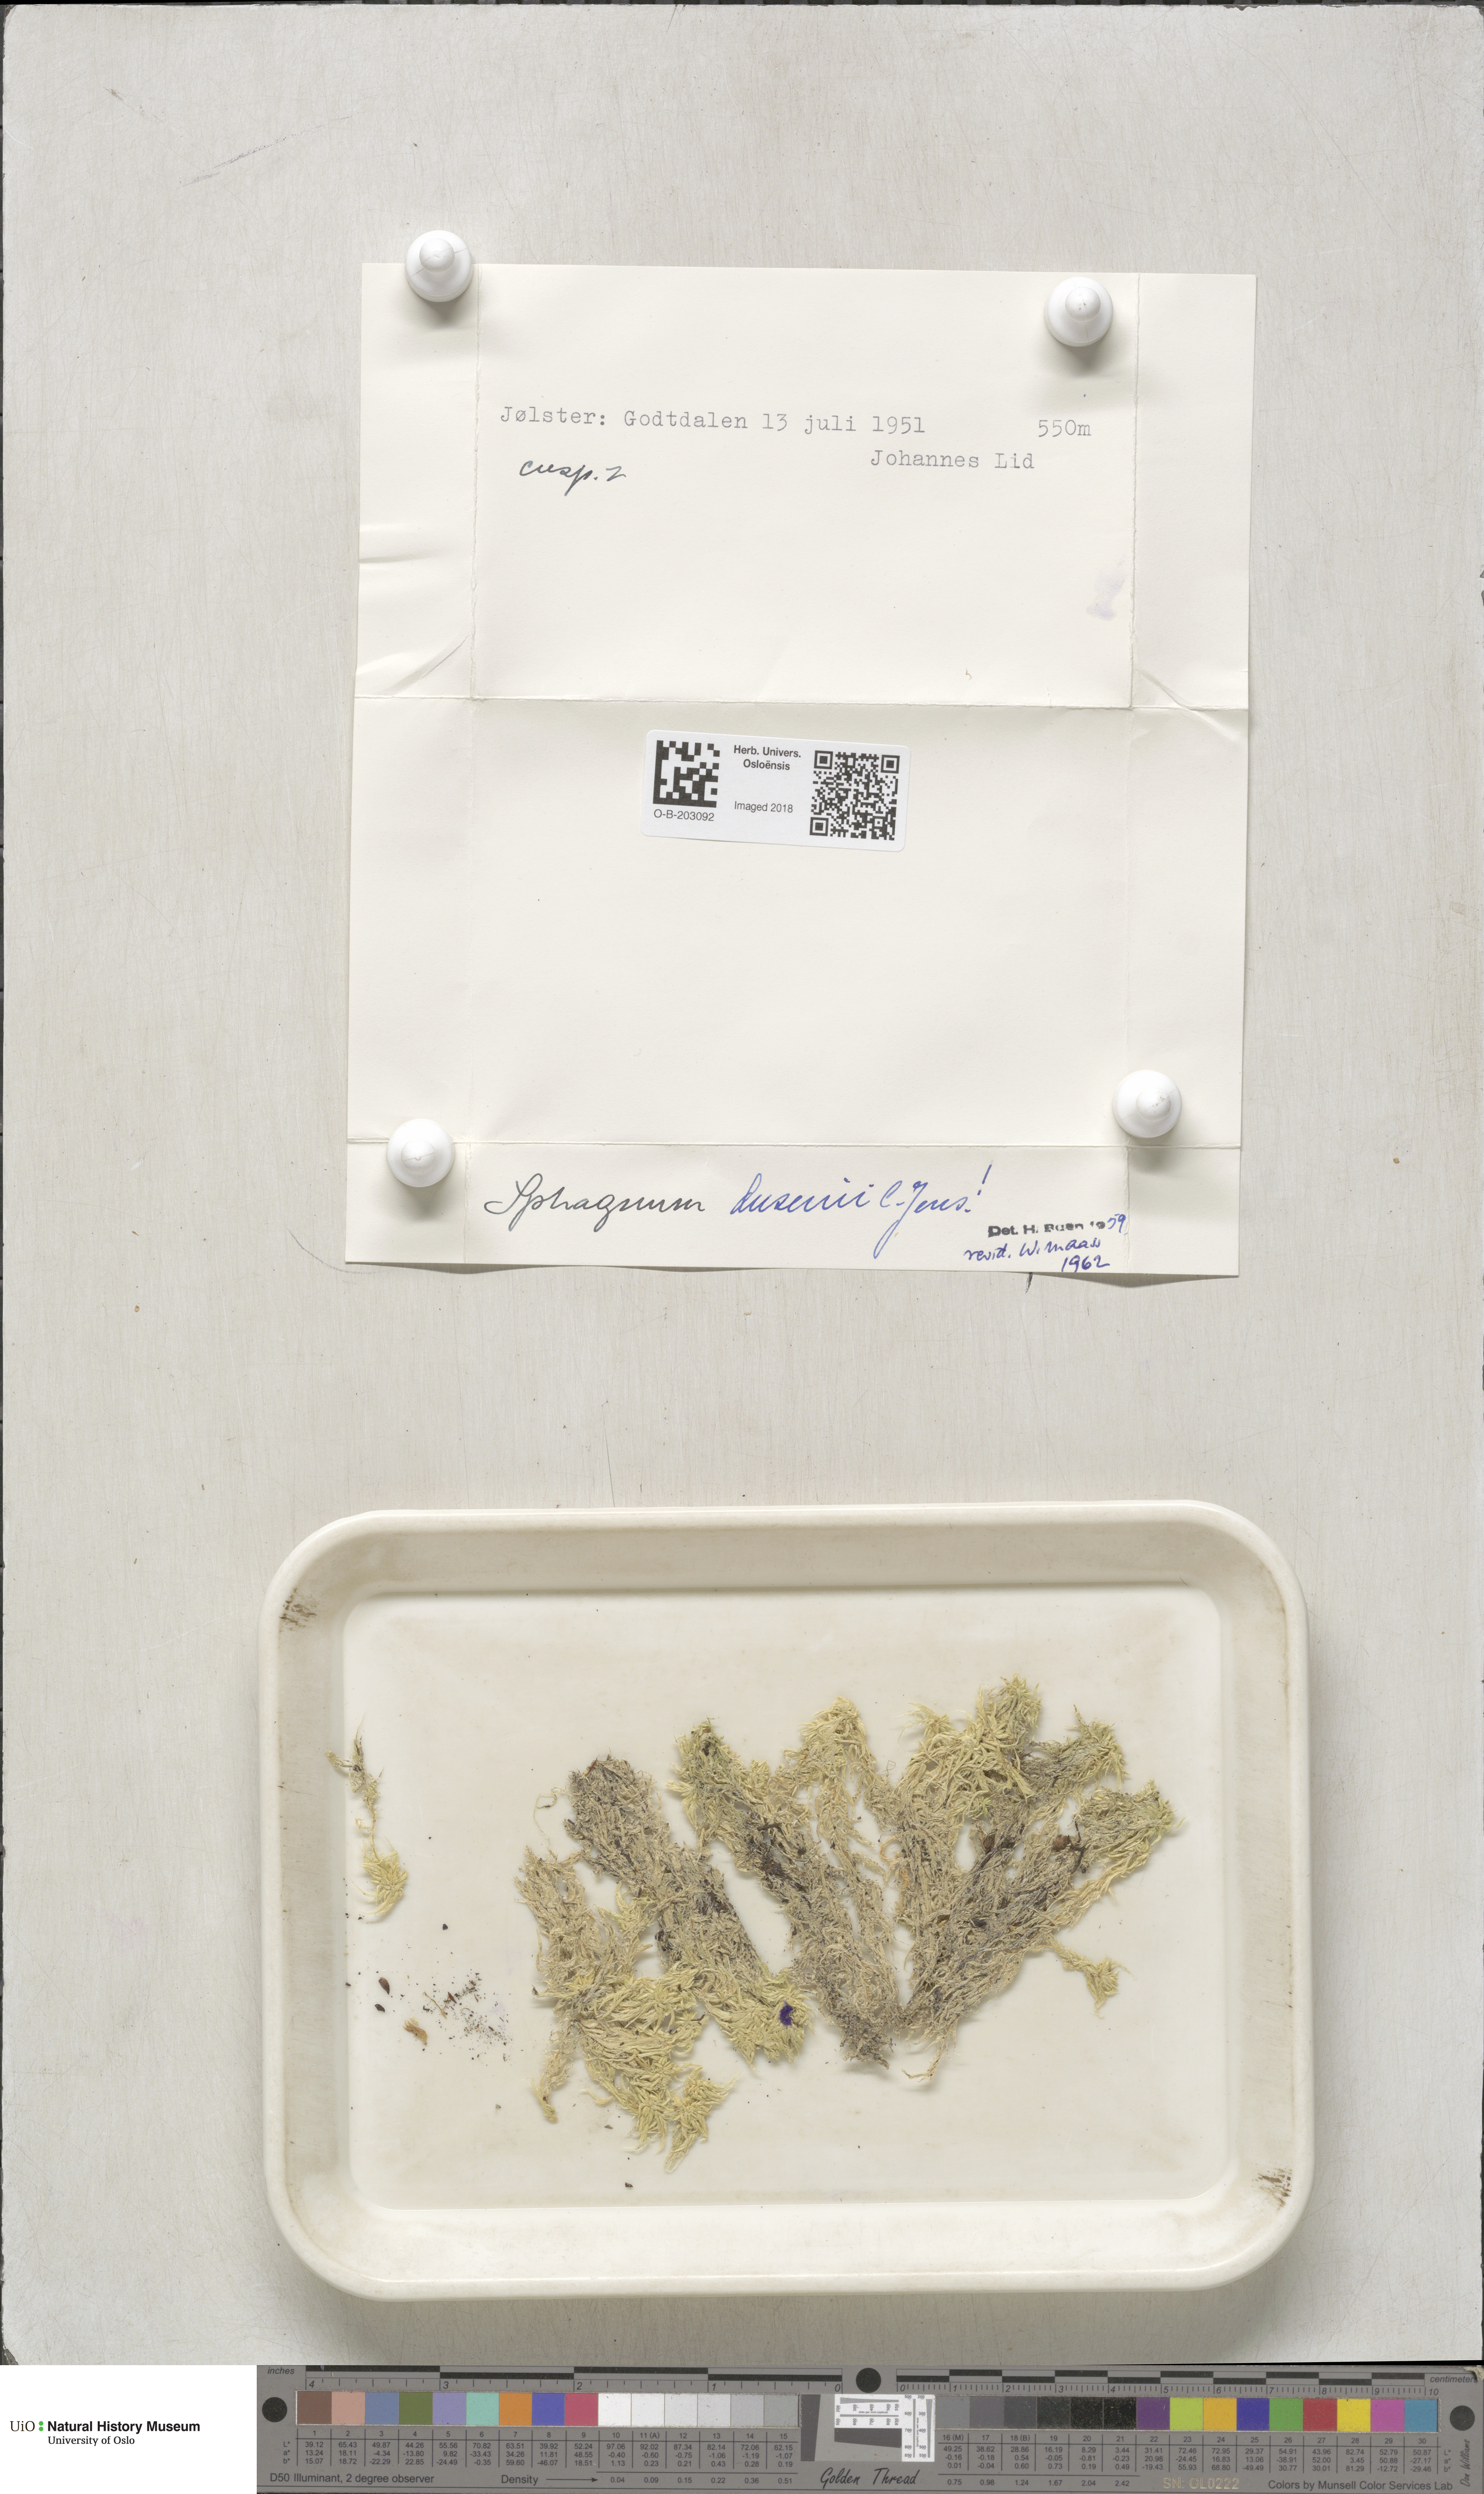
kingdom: Plantae
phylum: Bryophyta
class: Sphagnopsida
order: Sphagnales
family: Sphagnaceae
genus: Sphagnum
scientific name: Sphagnum majus
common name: Olive bog-moss
